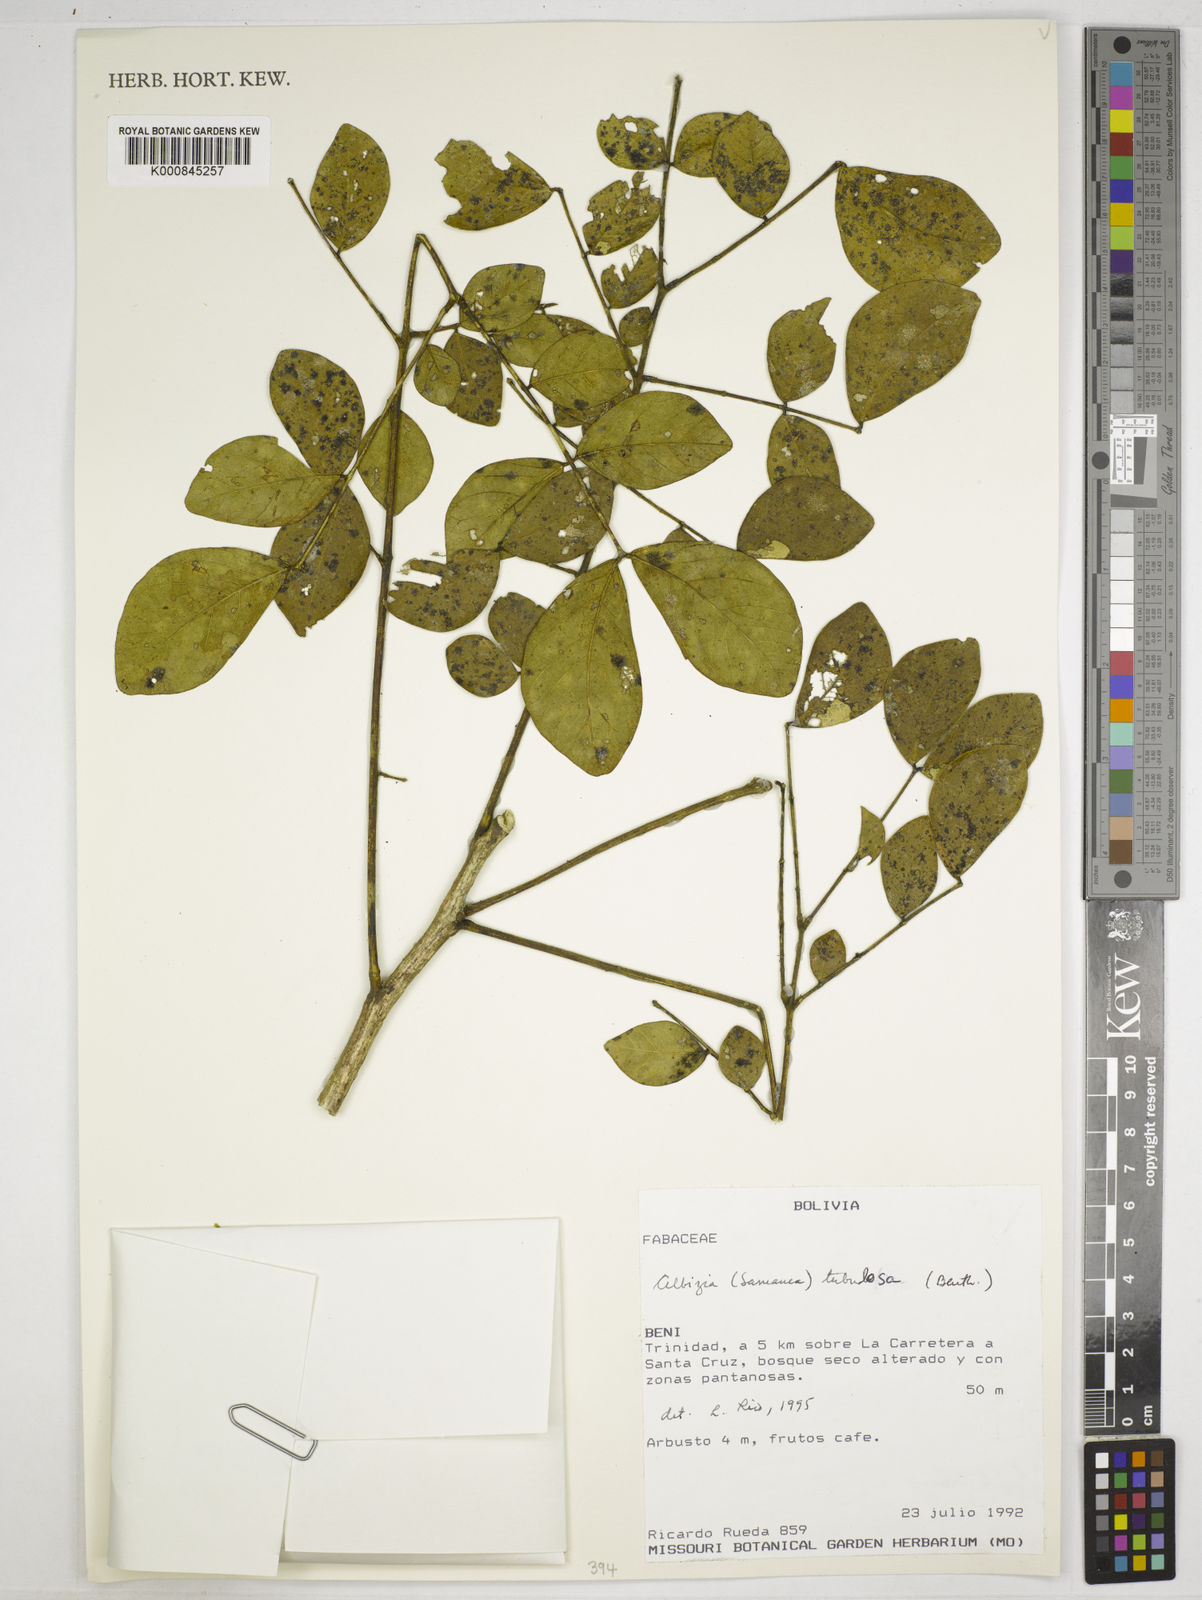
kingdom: Plantae
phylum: Tracheophyta
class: Magnoliopsida
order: Fabales
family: Fabaceae
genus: Samanea
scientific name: Samanea tubulosa
